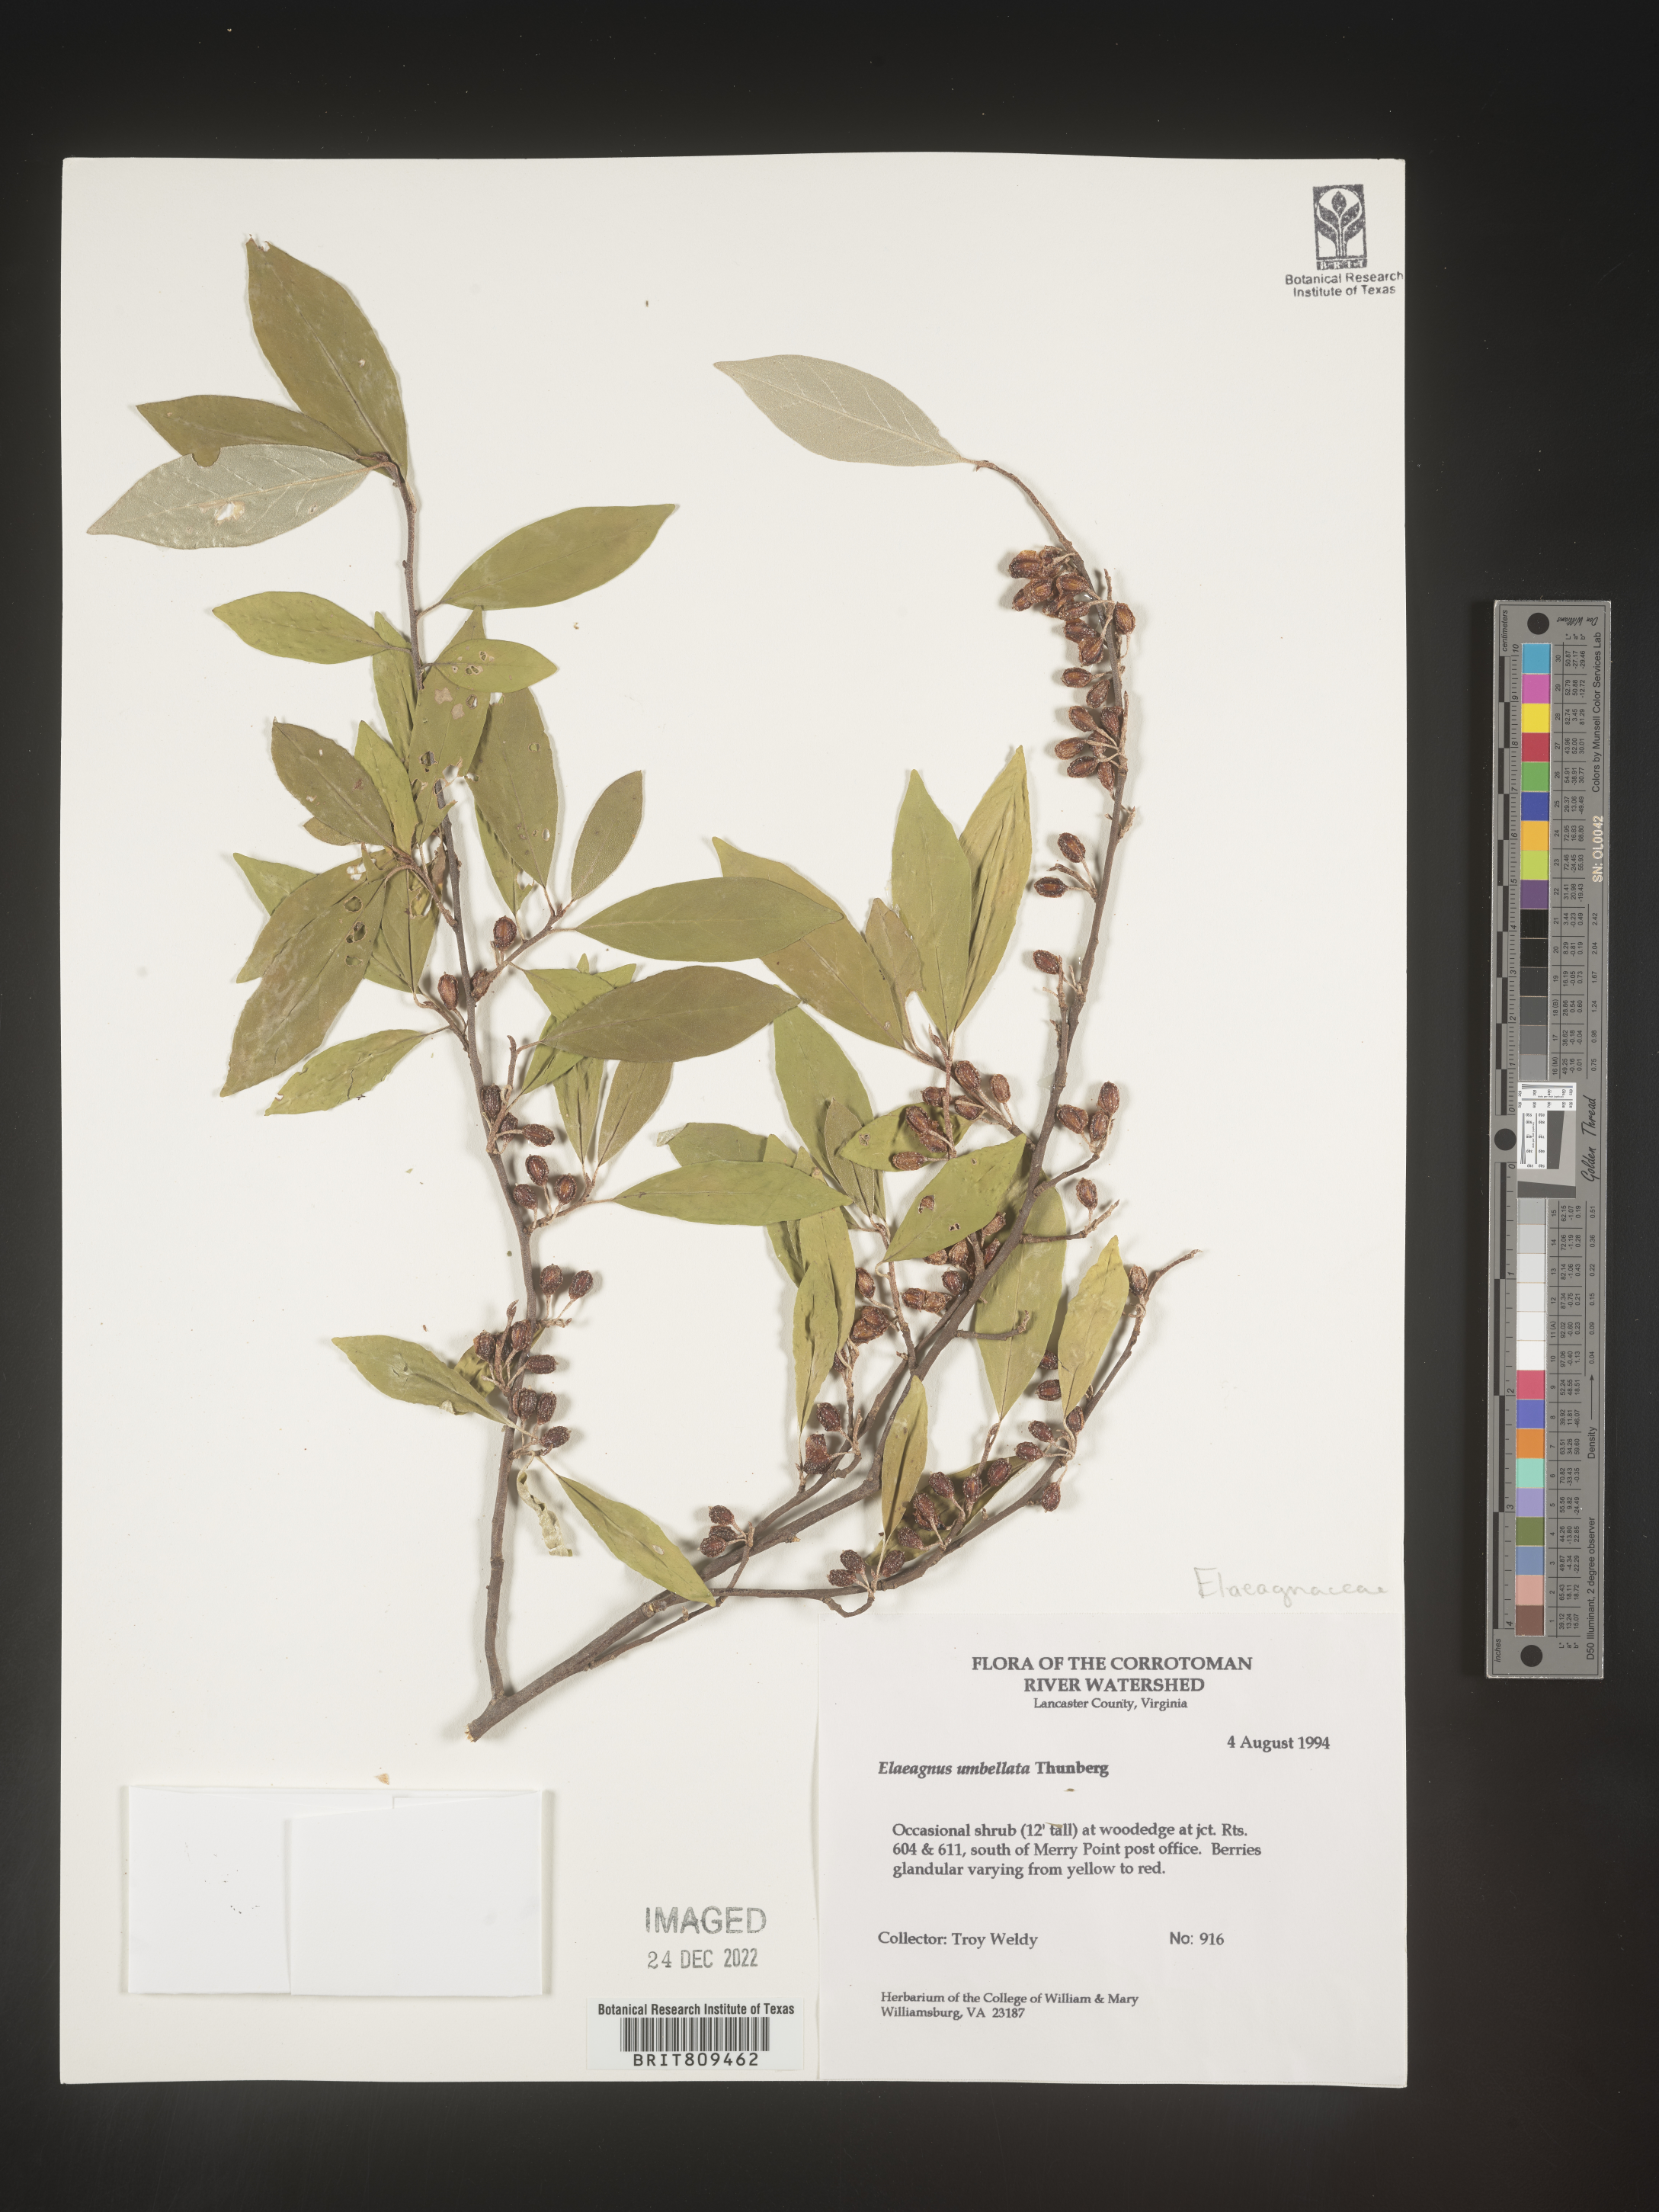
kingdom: Plantae
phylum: Tracheophyta
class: Magnoliopsida
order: Rosales
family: Elaeagnaceae
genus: Elaeagnus
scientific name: Elaeagnus
